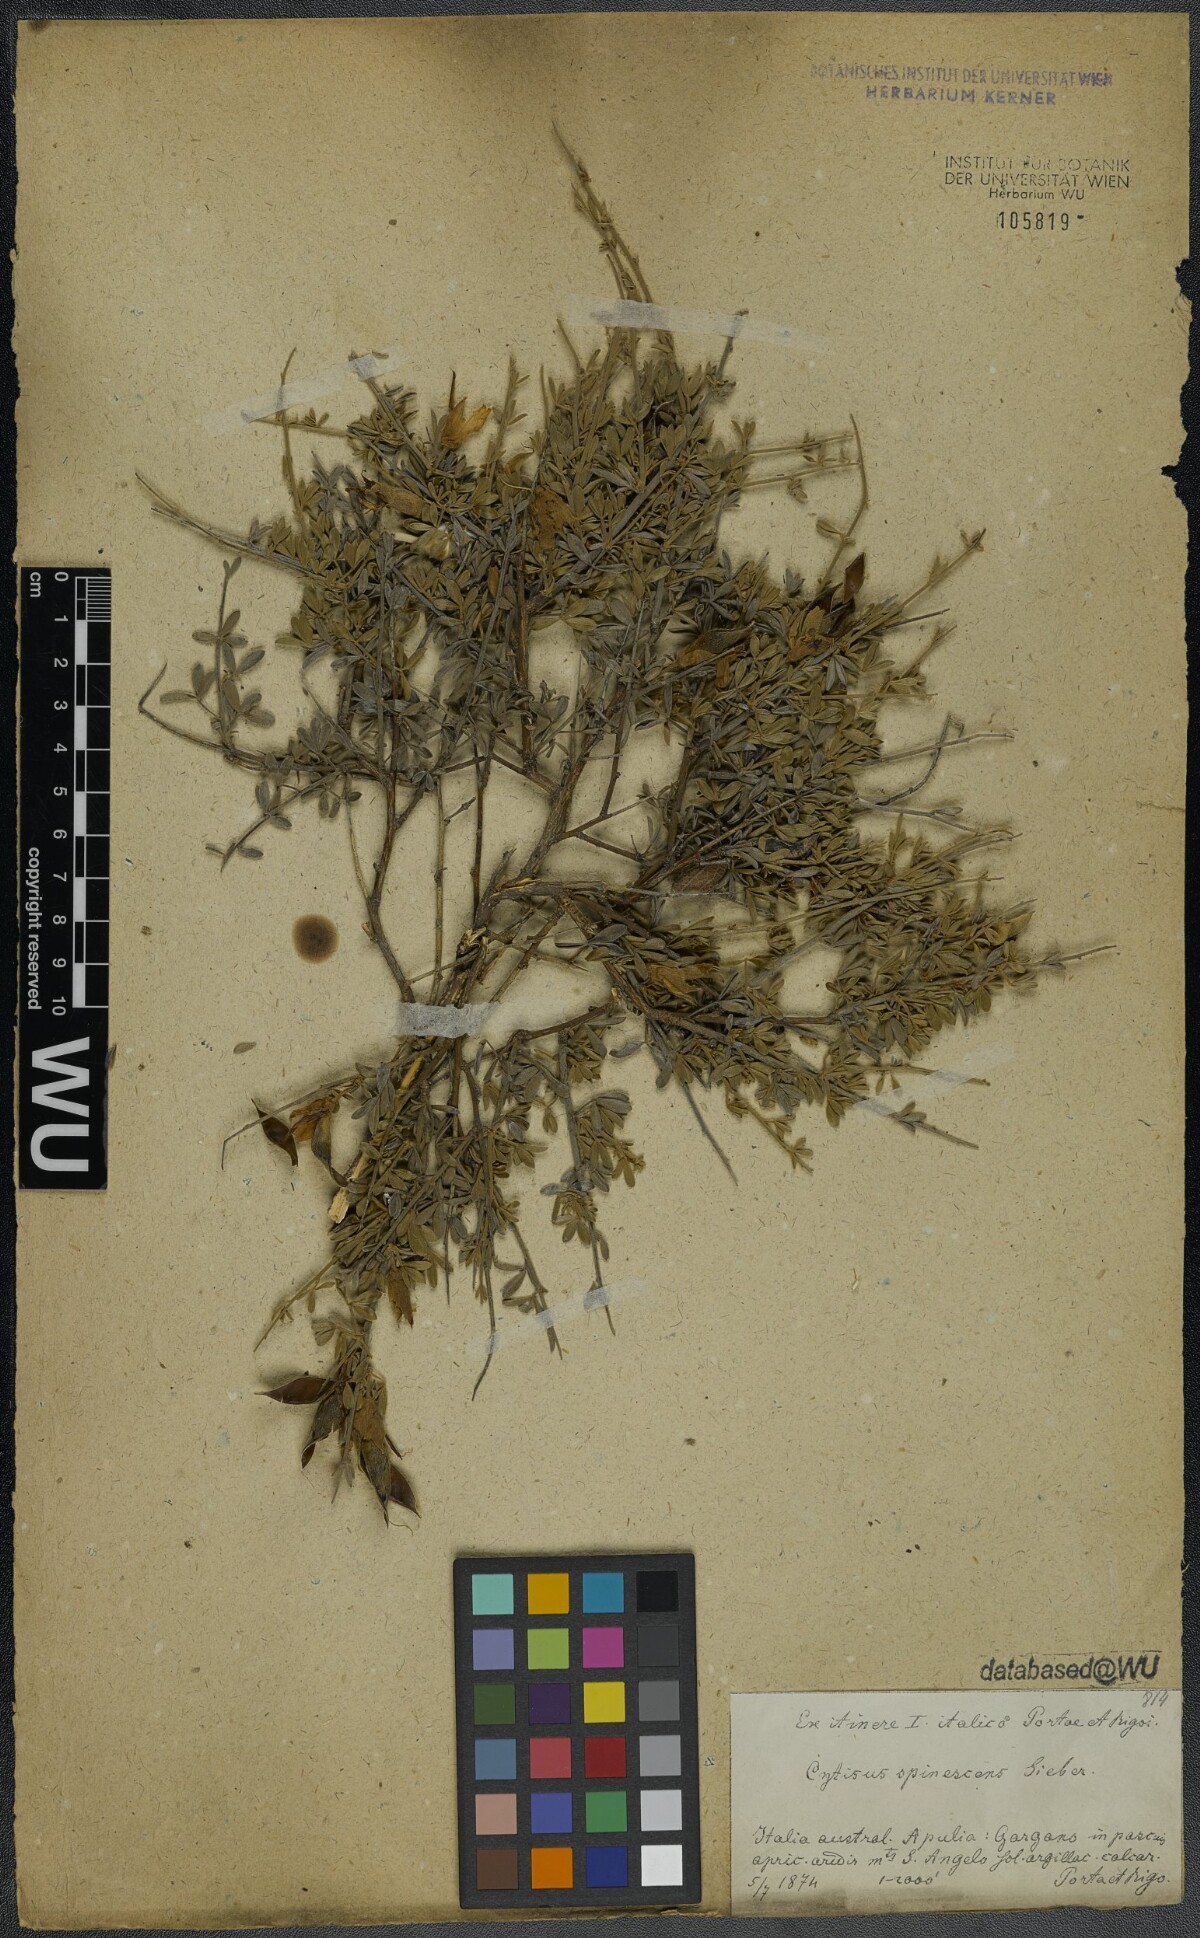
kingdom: Plantae
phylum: Tracheophyta
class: Magnoliopsida
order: Fabales
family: Fabaceae
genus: Chamaecytisus
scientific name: Chamaecytisus spinescens
